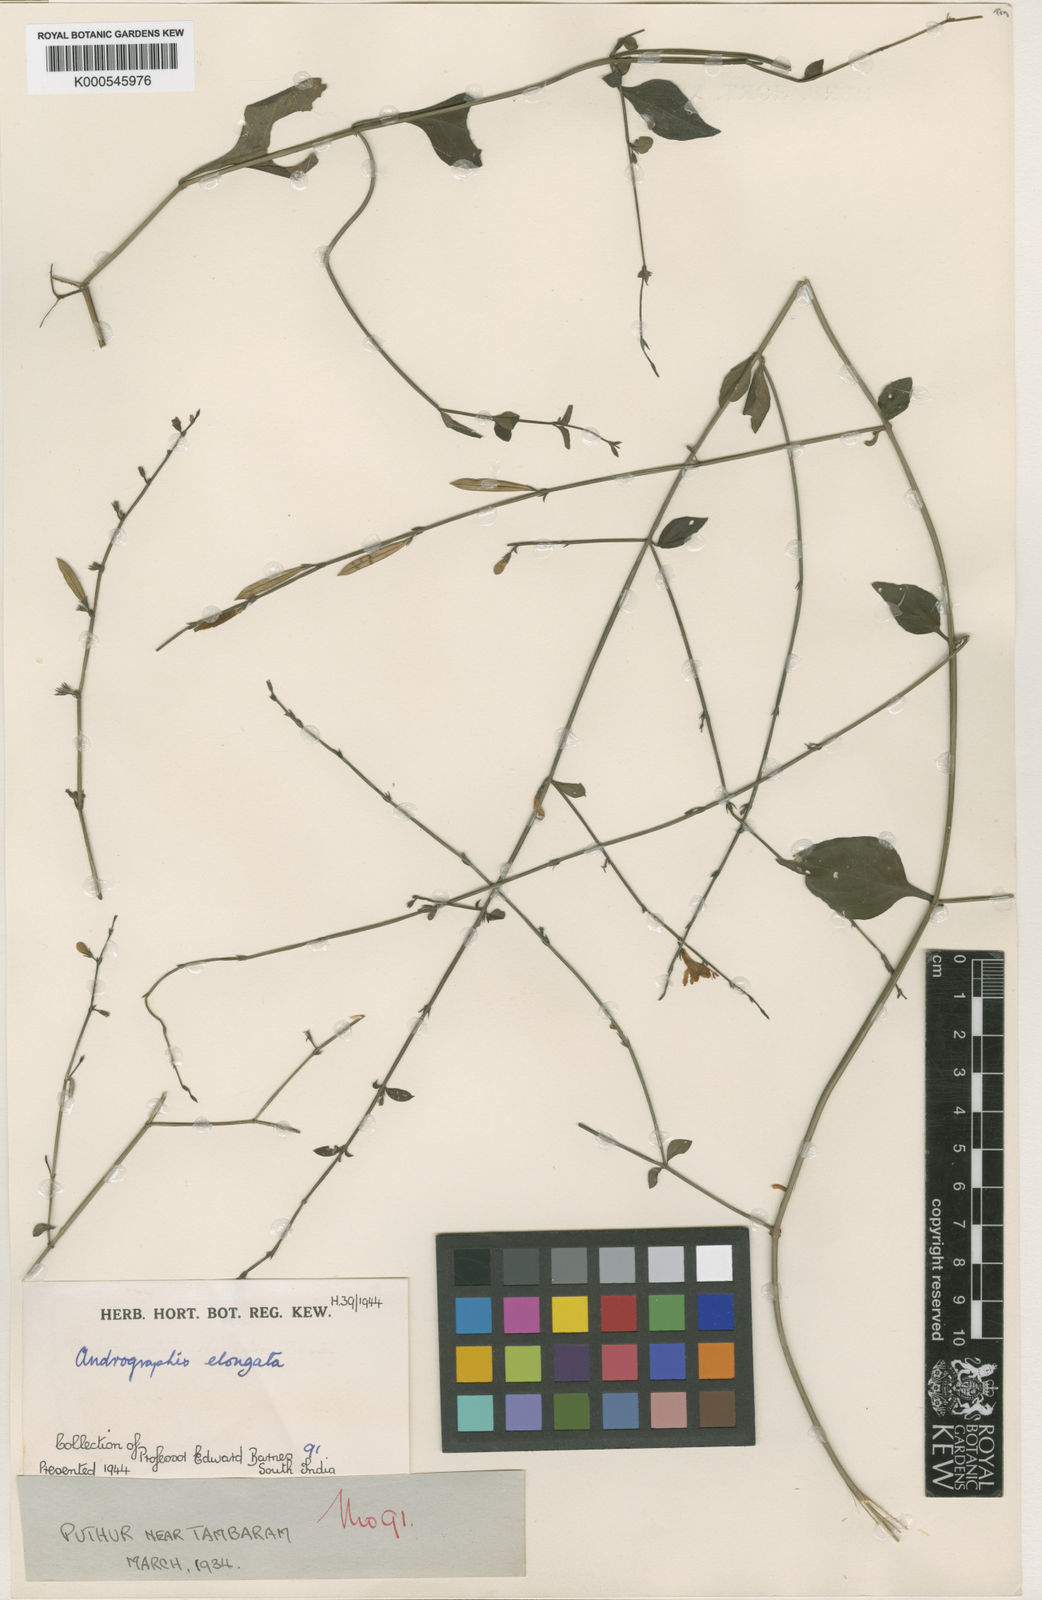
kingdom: Plantae
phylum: Tracheophyta
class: Magnoliopsida
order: Lamiales
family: Acanthaceae
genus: Andrographis
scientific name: Andrographis elongata
